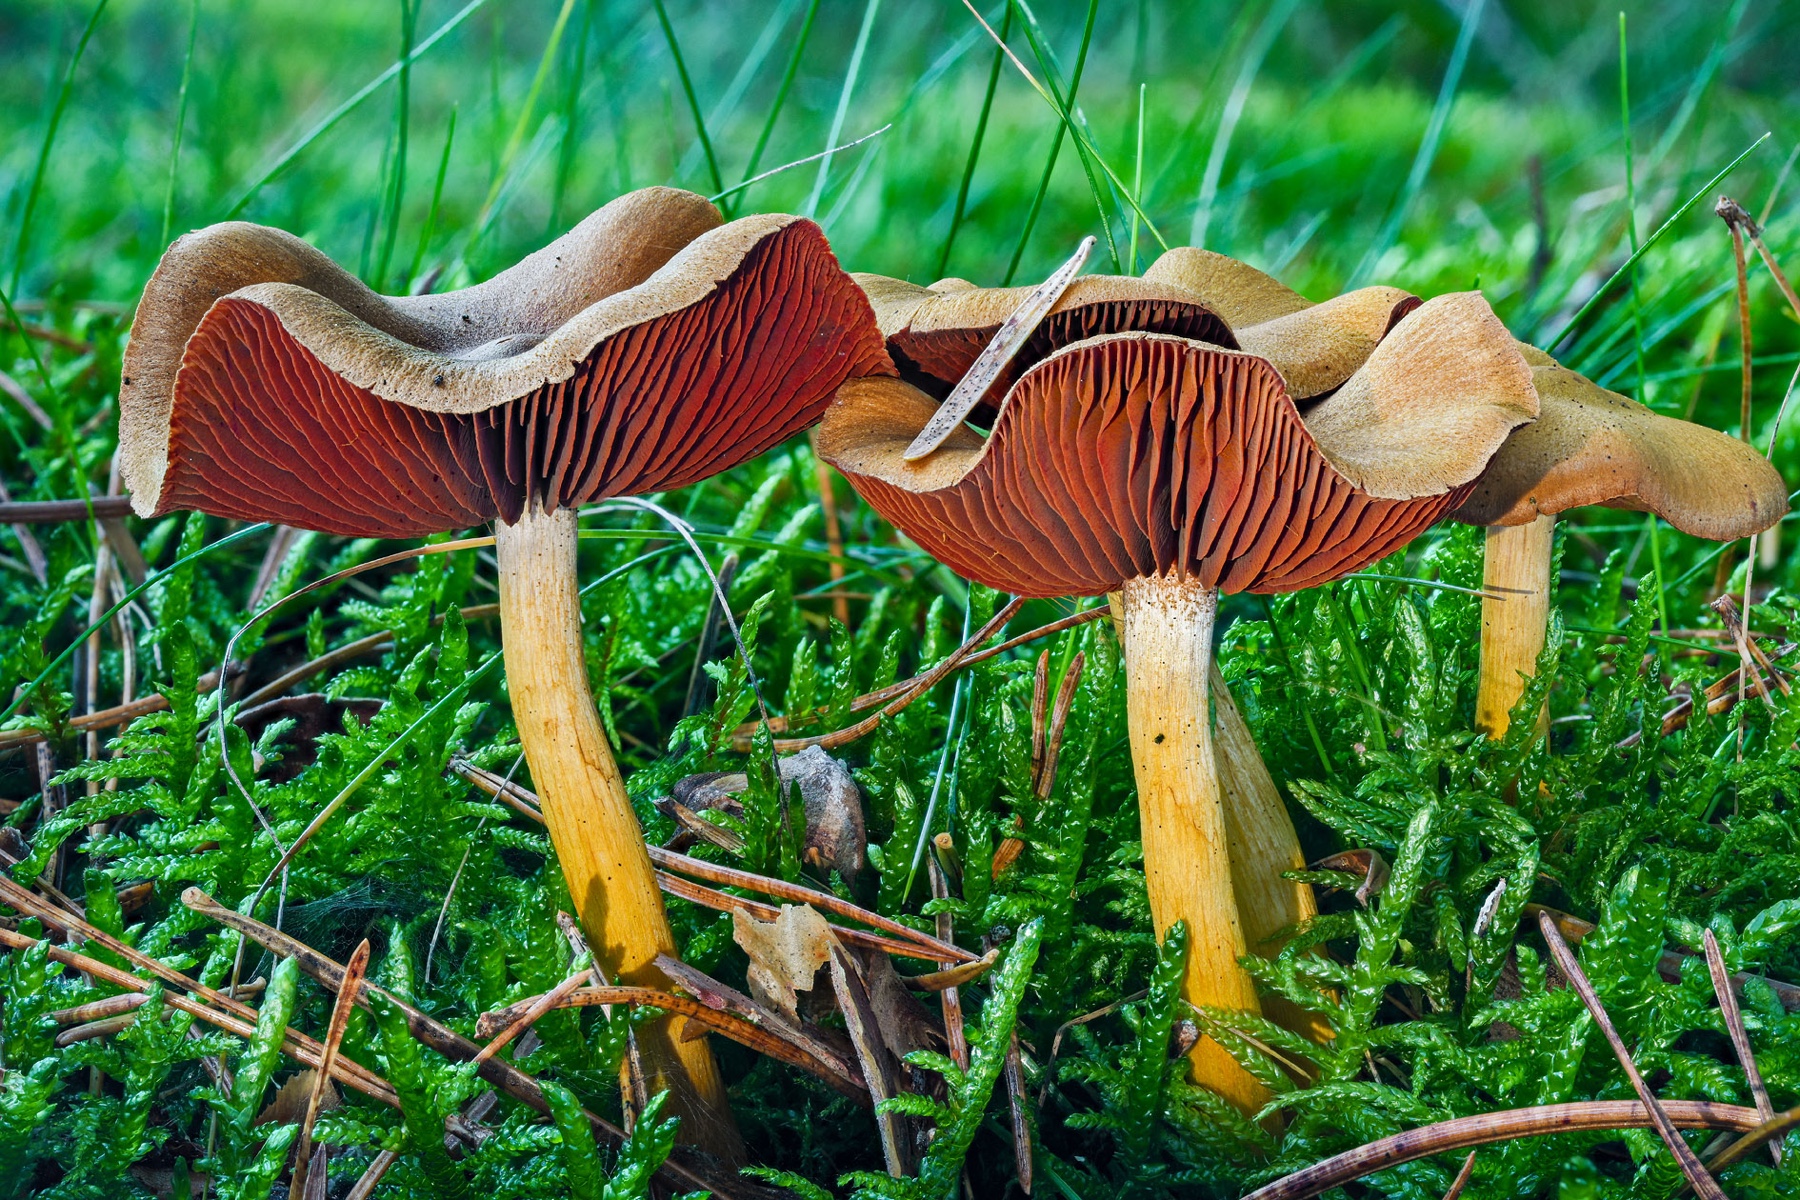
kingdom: Fungi
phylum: Basidiomycota
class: Agaricomycetes
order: Agaricales
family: Cortinariaceae
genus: Cortinarius
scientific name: Cortinarius
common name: cinnoberbladet slørhat
